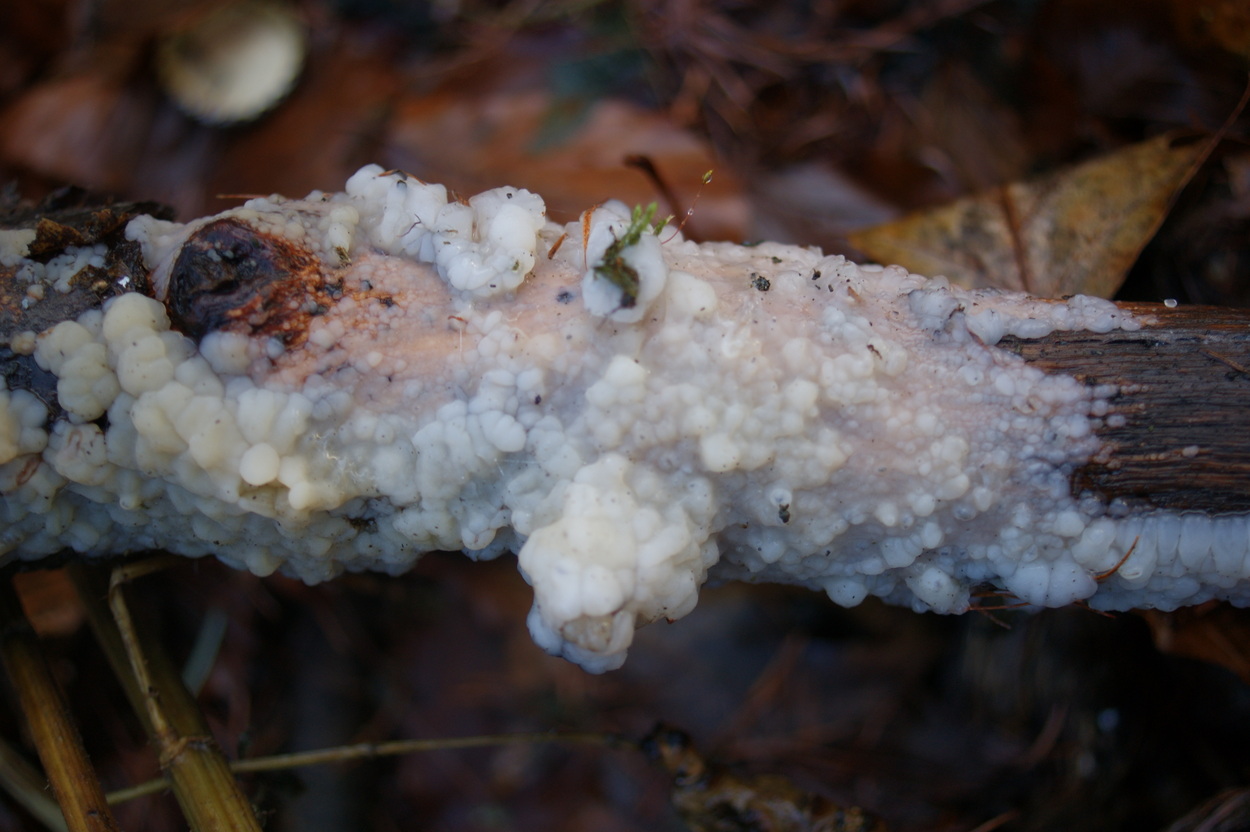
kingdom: Fungi
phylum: Basidiomycota
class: Agaricomycetes
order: Auriculariales
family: Auriculariaceae
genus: Exidia
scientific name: Exidia thuretiana
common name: hvidlig bævretop
